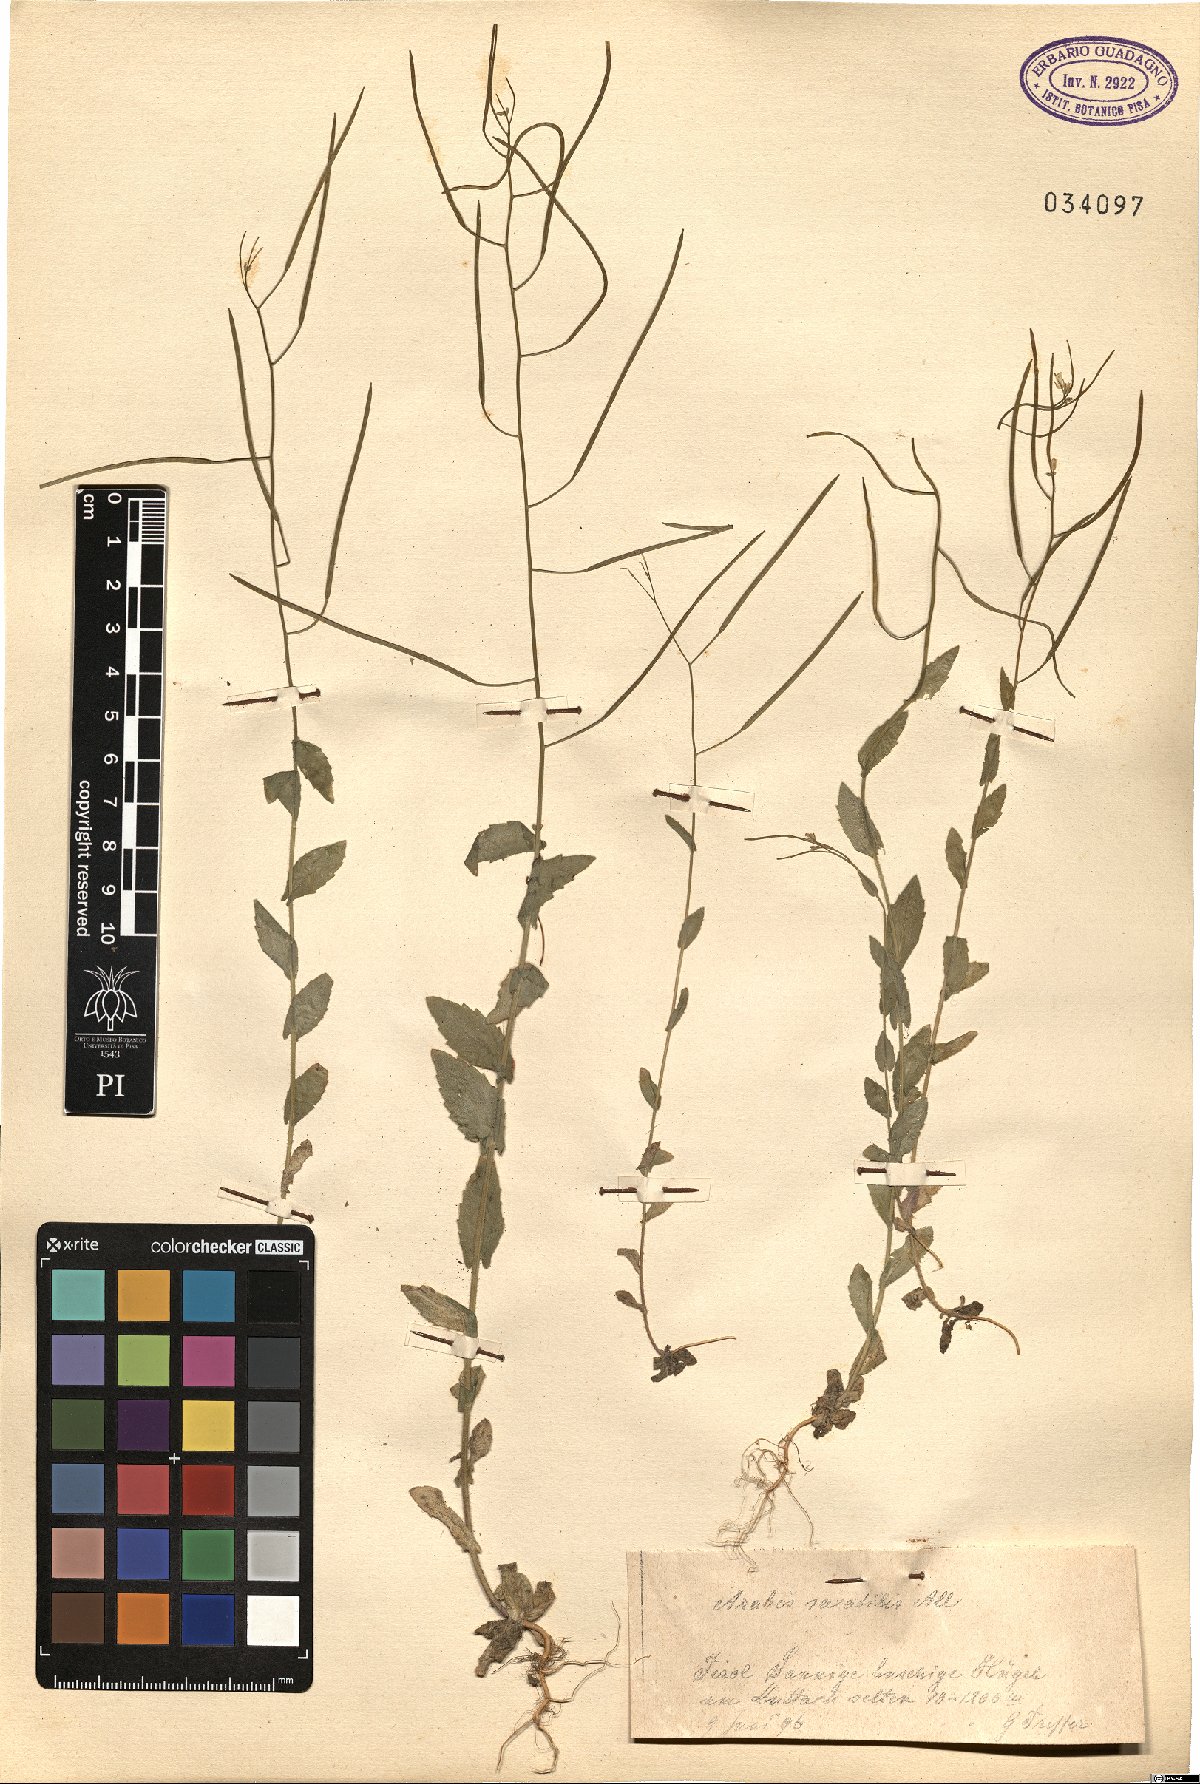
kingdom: Plantae
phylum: Tracheophyta
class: Magnoliopsida
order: Brassicales
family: Brassicaceae
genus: Arabis
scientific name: Arabis nova
